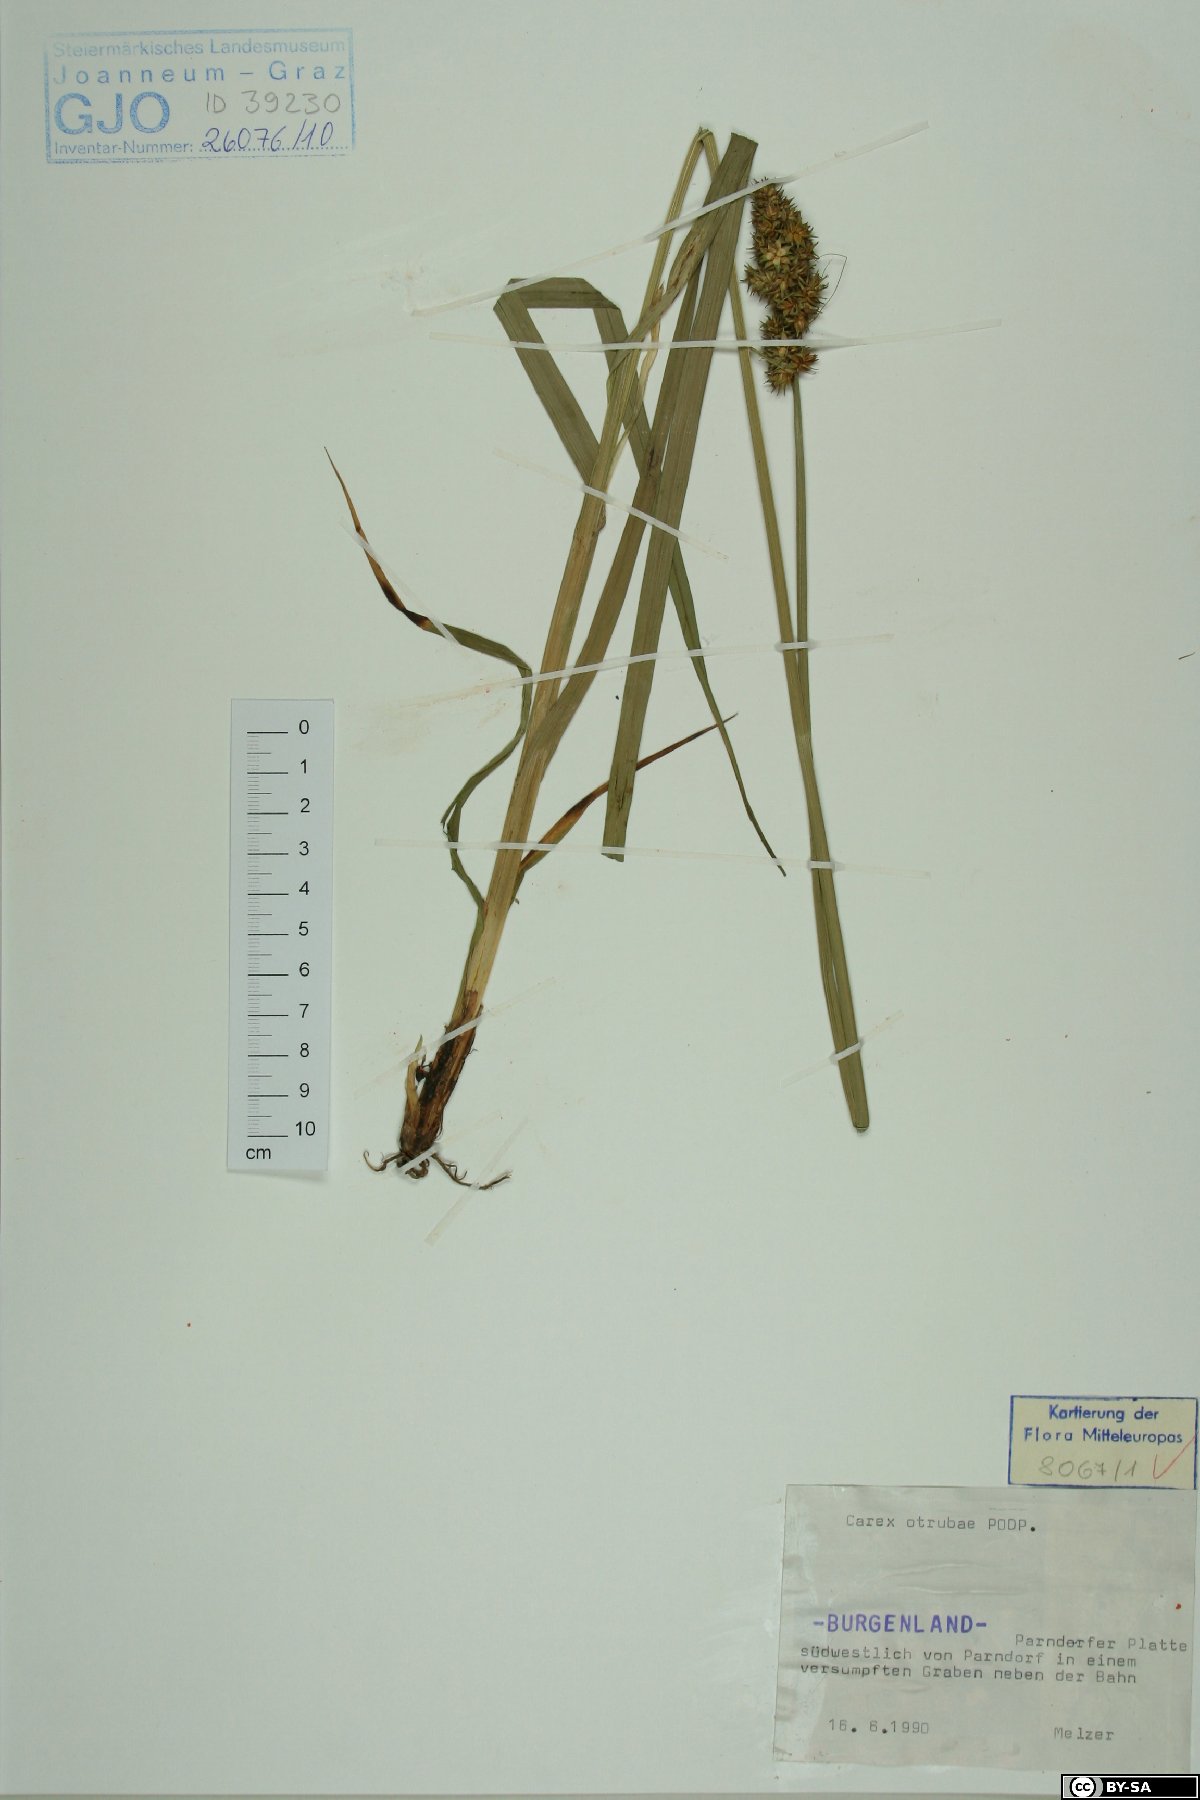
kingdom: Plantae
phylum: Tracheophyta
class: Liliopsida
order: Poales
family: Cyperaceae
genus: Carex
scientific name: Carex otrubae
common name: False fox-sedge
